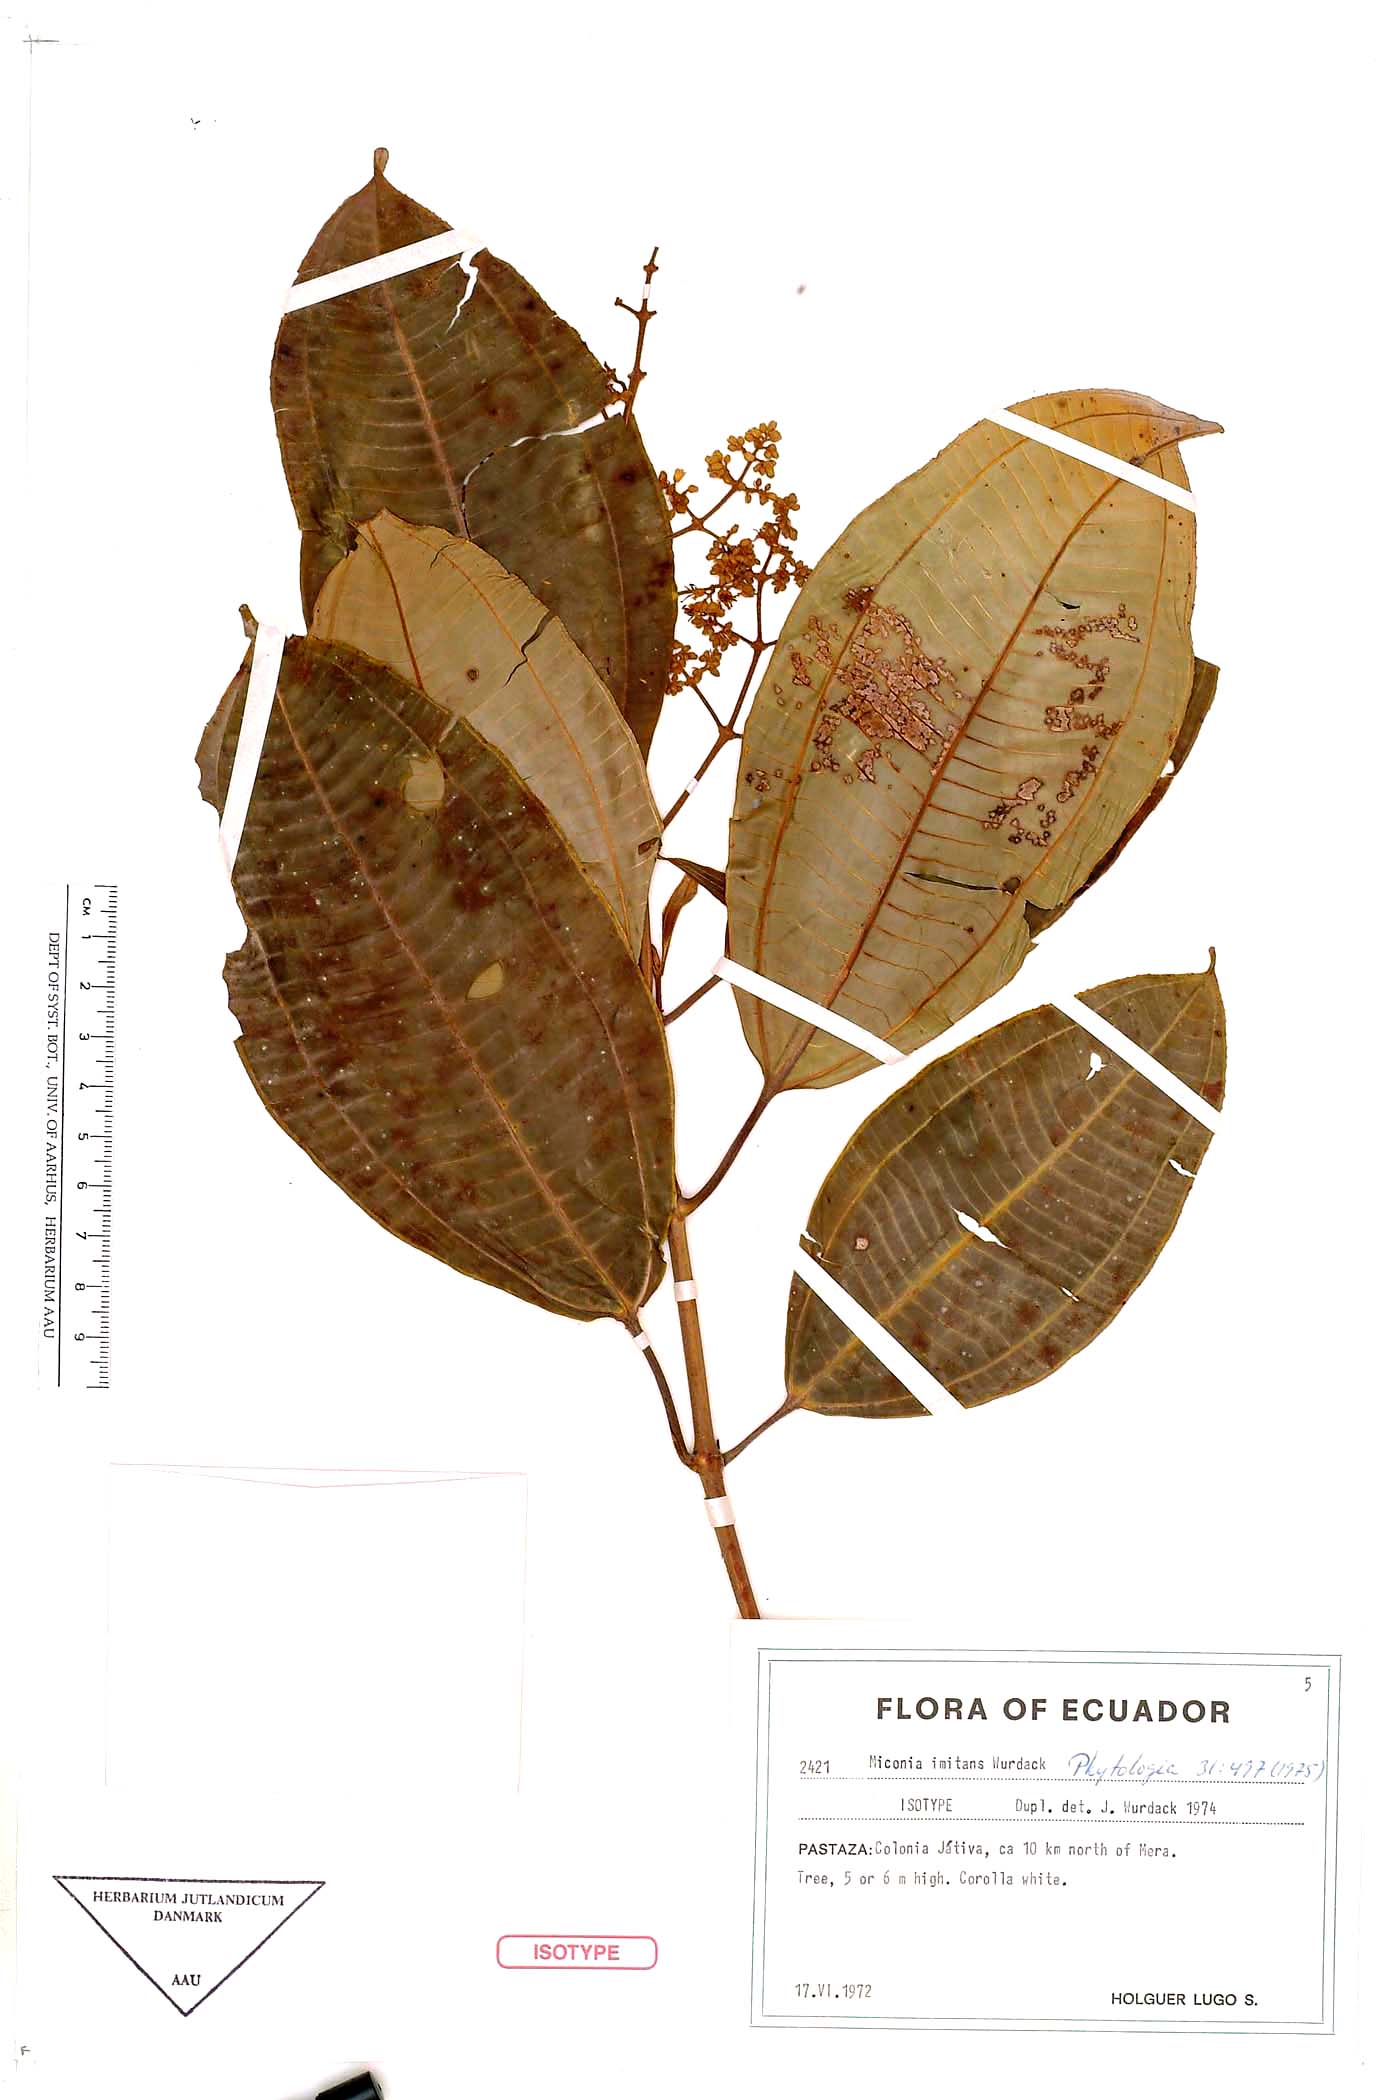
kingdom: Plantae
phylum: Tracheophyta
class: Magnoliopsida
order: Myrtales
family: Melastomataceae
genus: Miconia
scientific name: Miconia imitans
